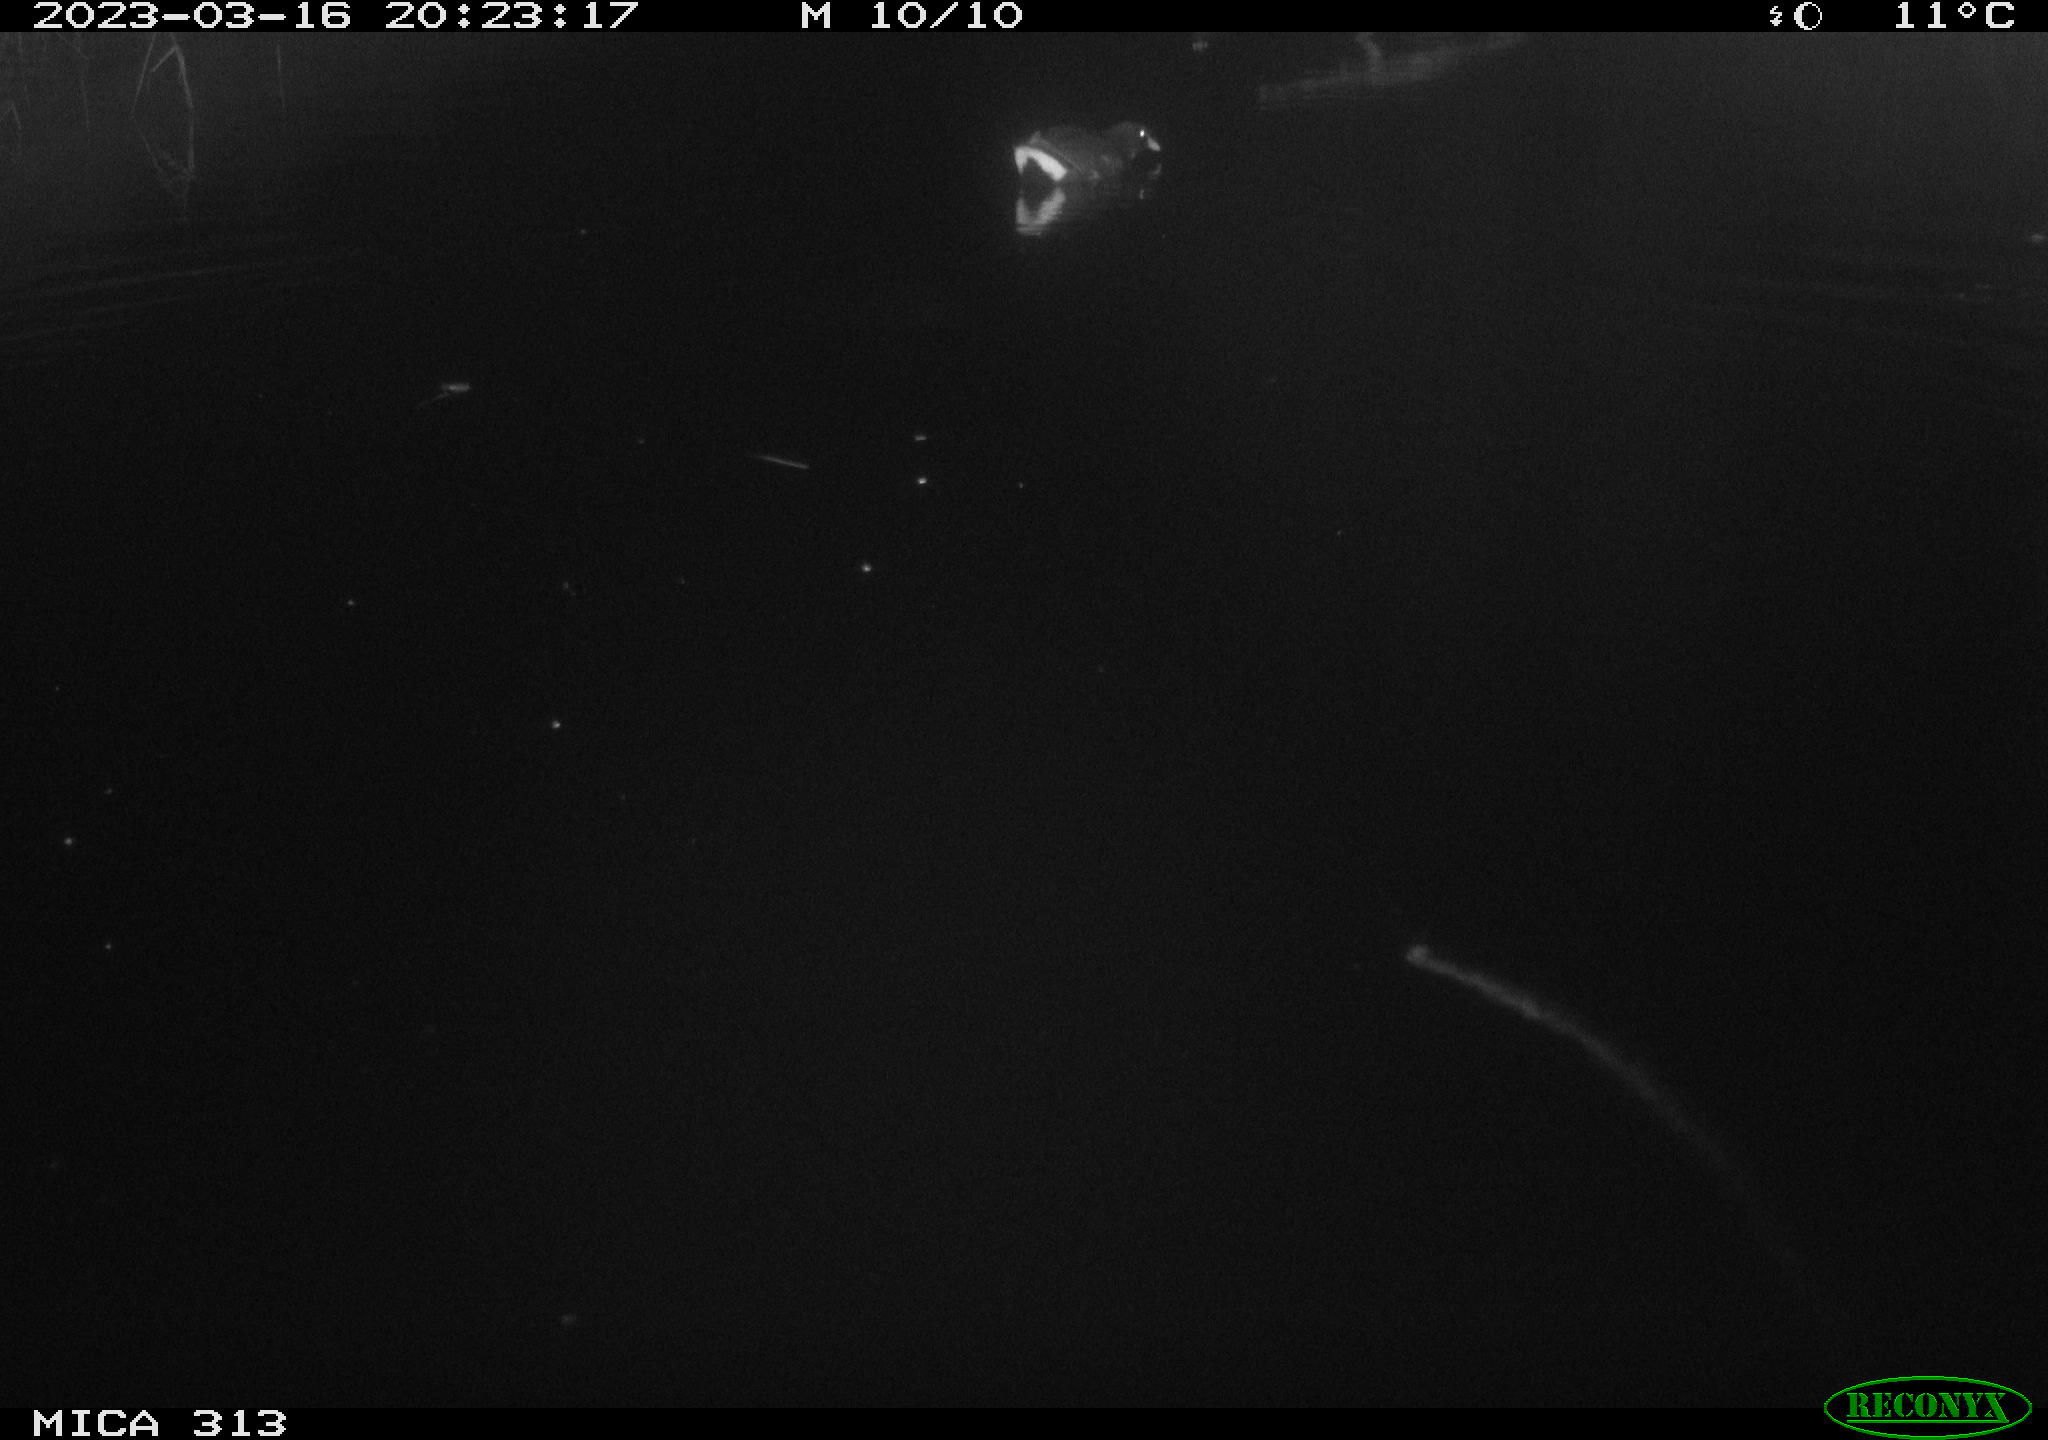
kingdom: Animalia
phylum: Chordata
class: Aves
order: Gruiformes
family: Rallidae
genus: Gallinula
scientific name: Gallinula chloropus
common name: Common moorhen
